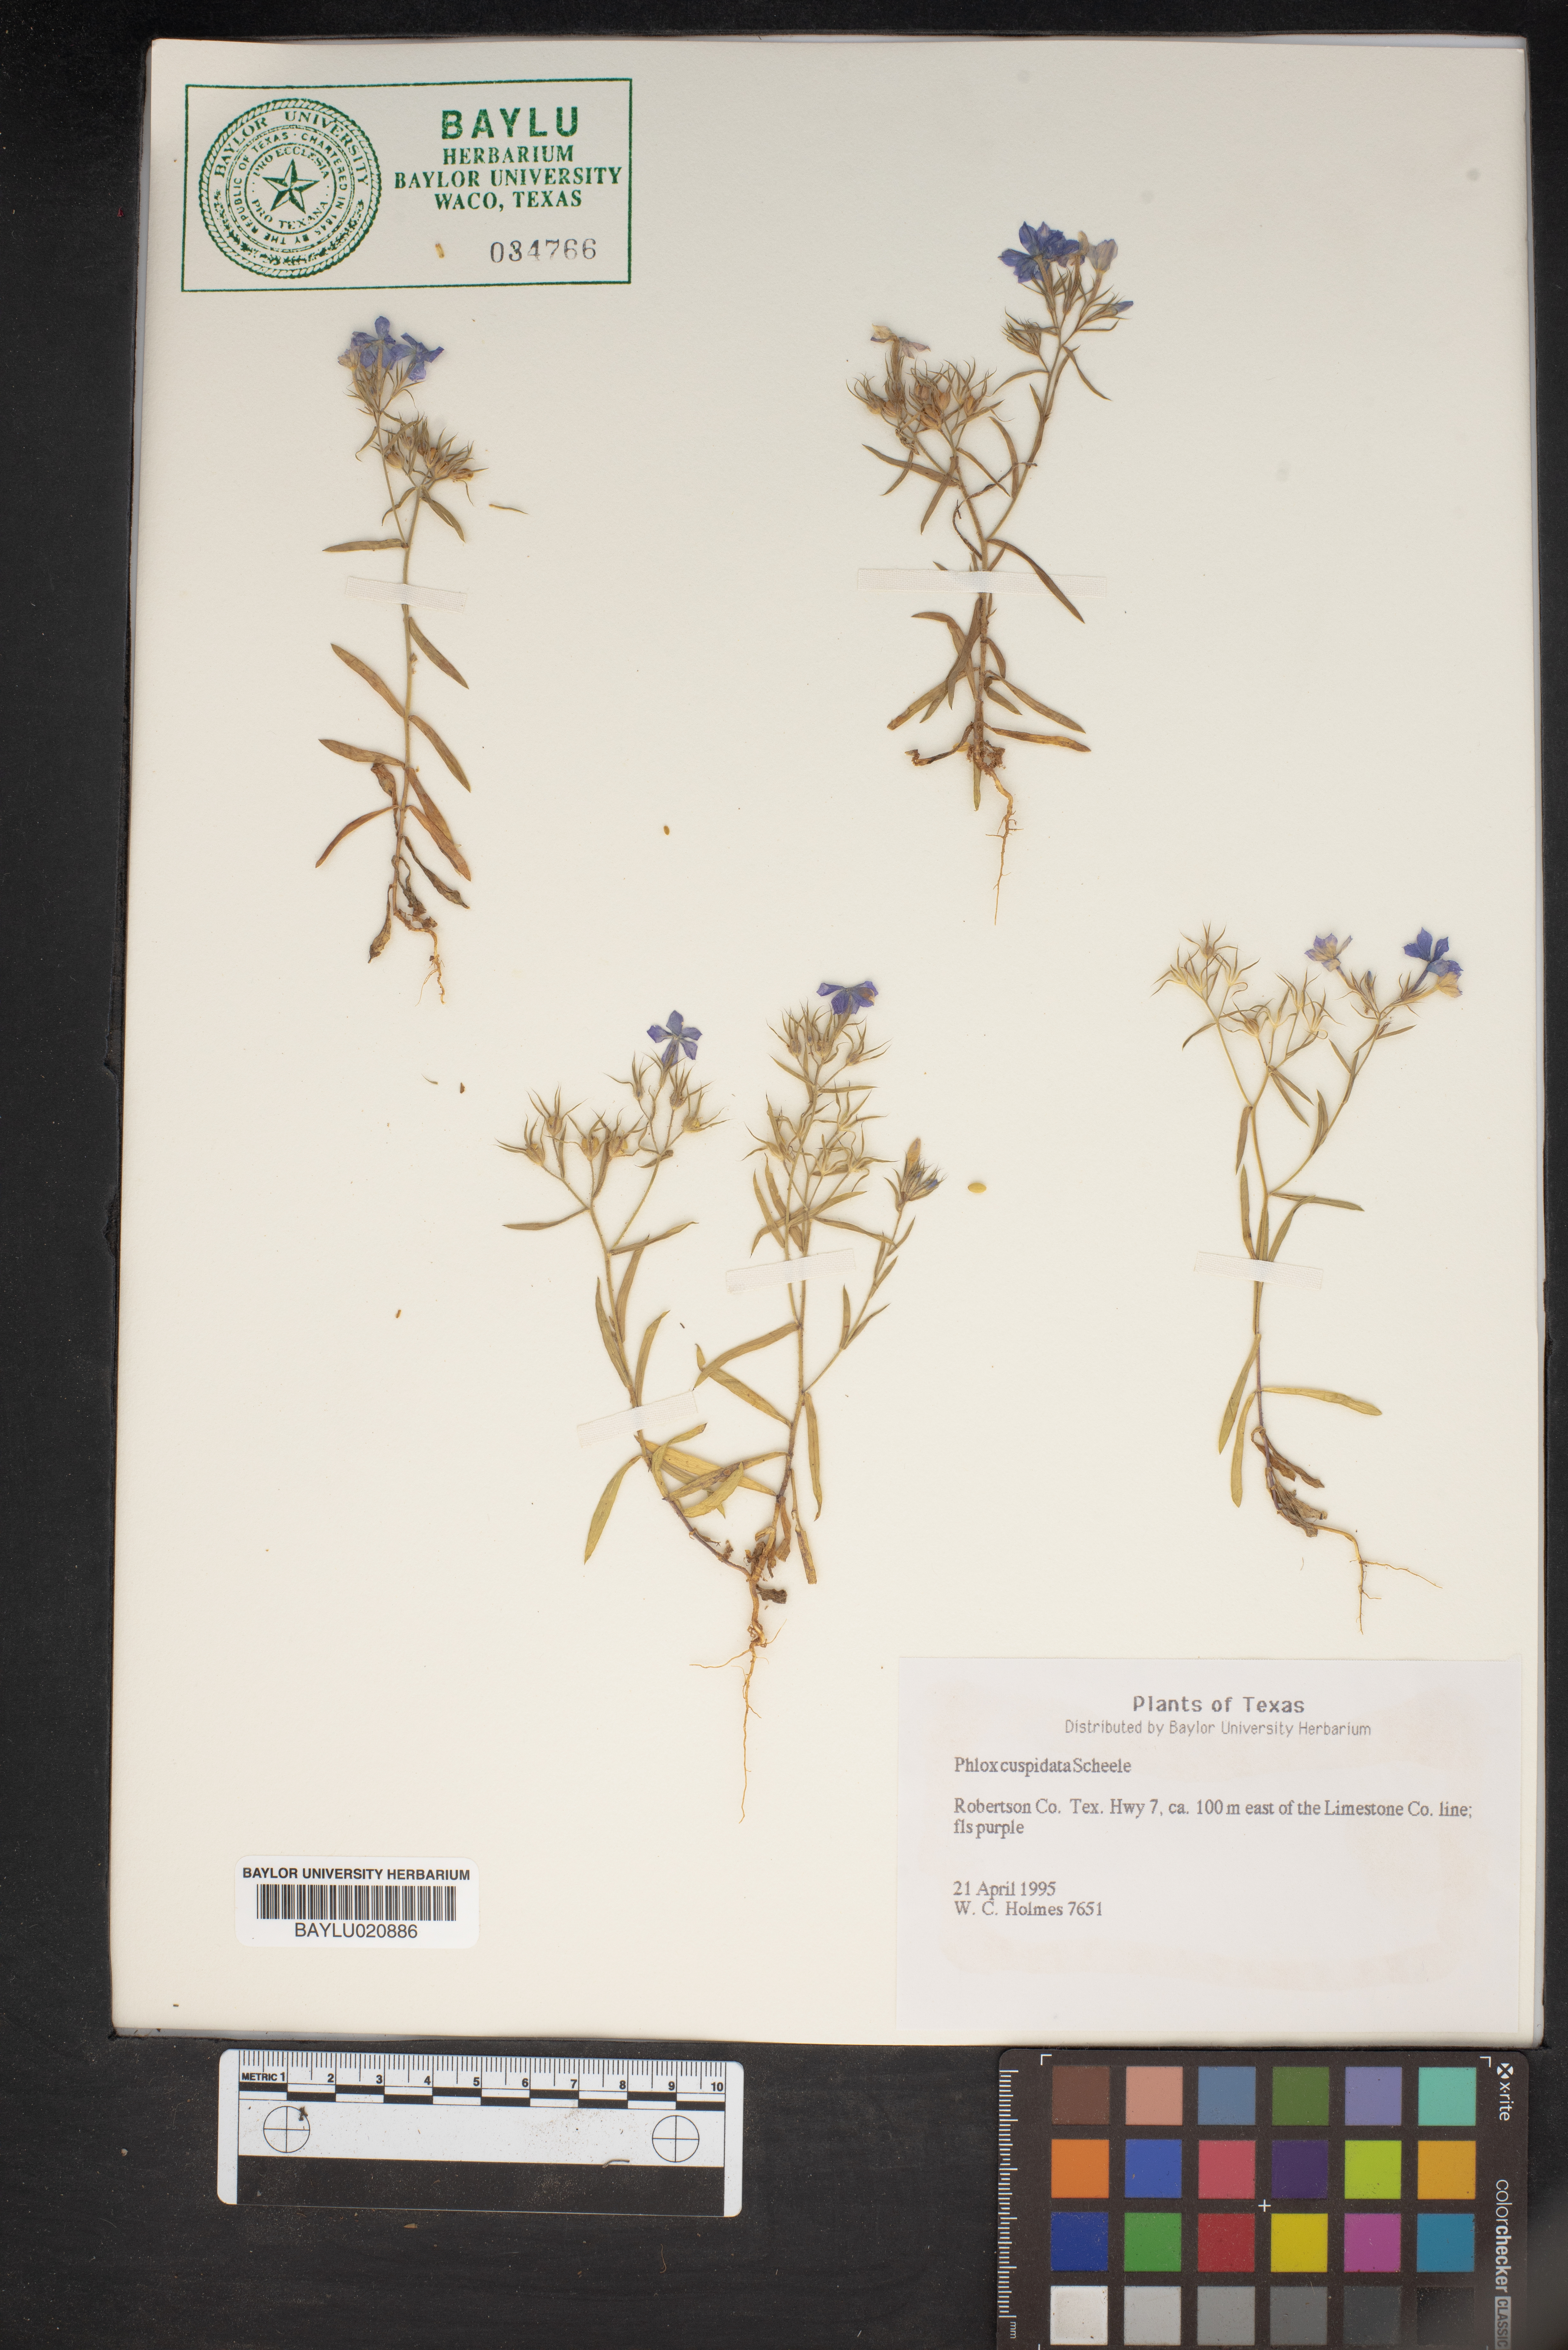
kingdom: Plantae
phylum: Tracheophyta
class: Magnoliopsida
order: Ericales
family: Polemoniaceae
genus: Phlox
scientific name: Phlox cuspidata
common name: Pointed phlox
